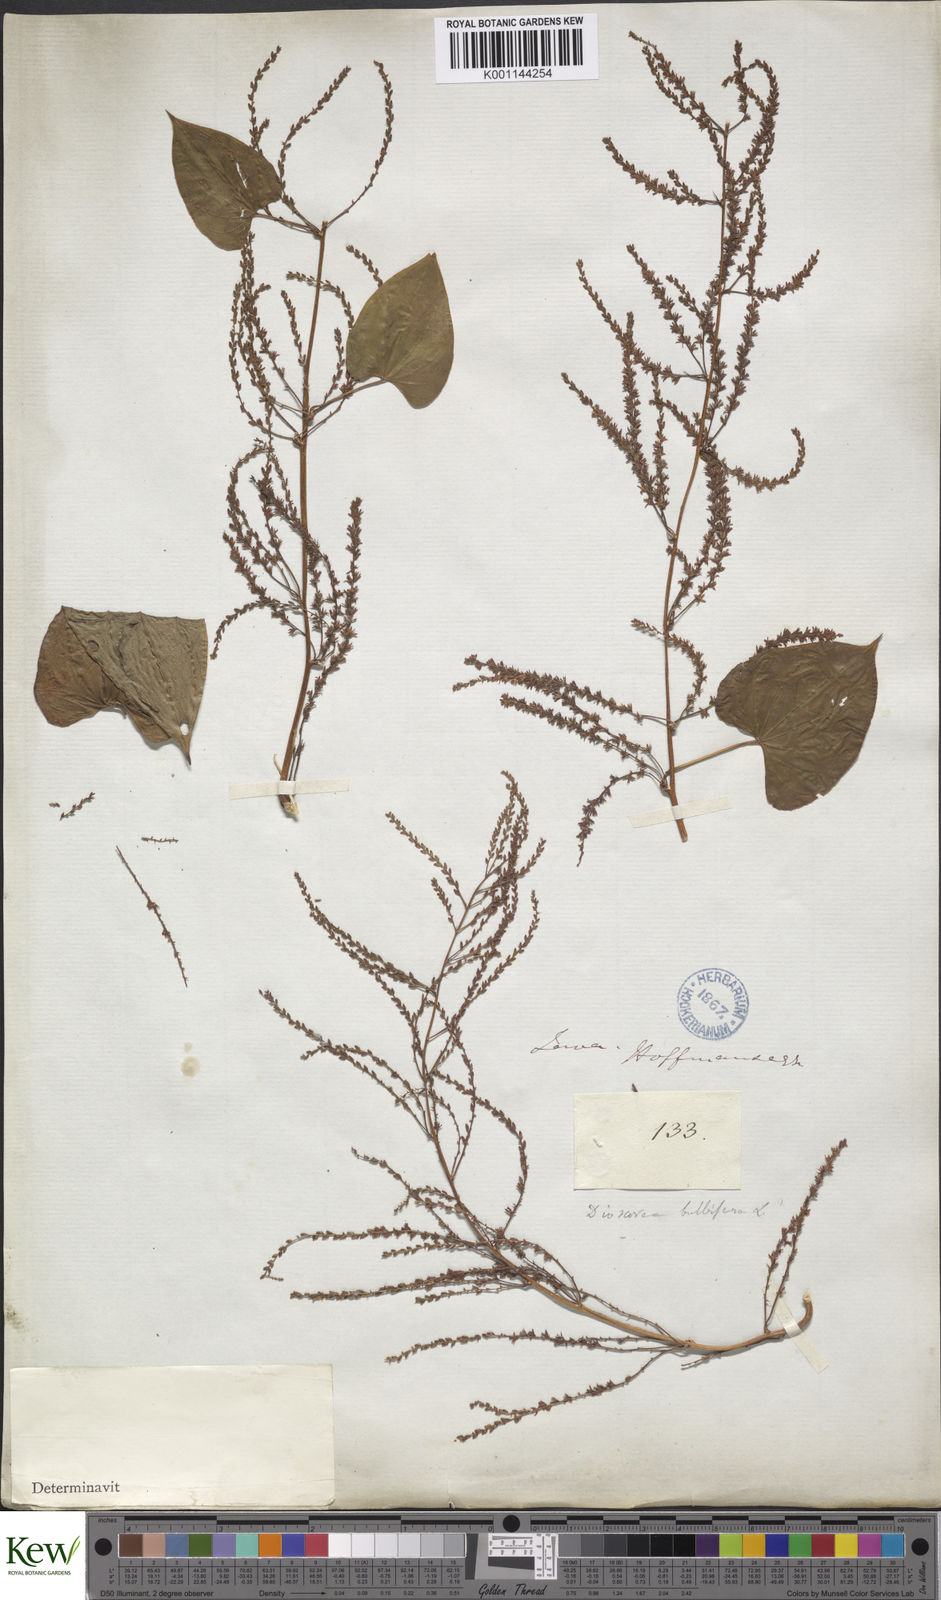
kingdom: Plantae
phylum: Tracheophyta
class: Liliopsida
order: Dioscoreales
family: Dioscoreaceae
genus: Dioscorea
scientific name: Dioscorea bulbifera
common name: Air yam
